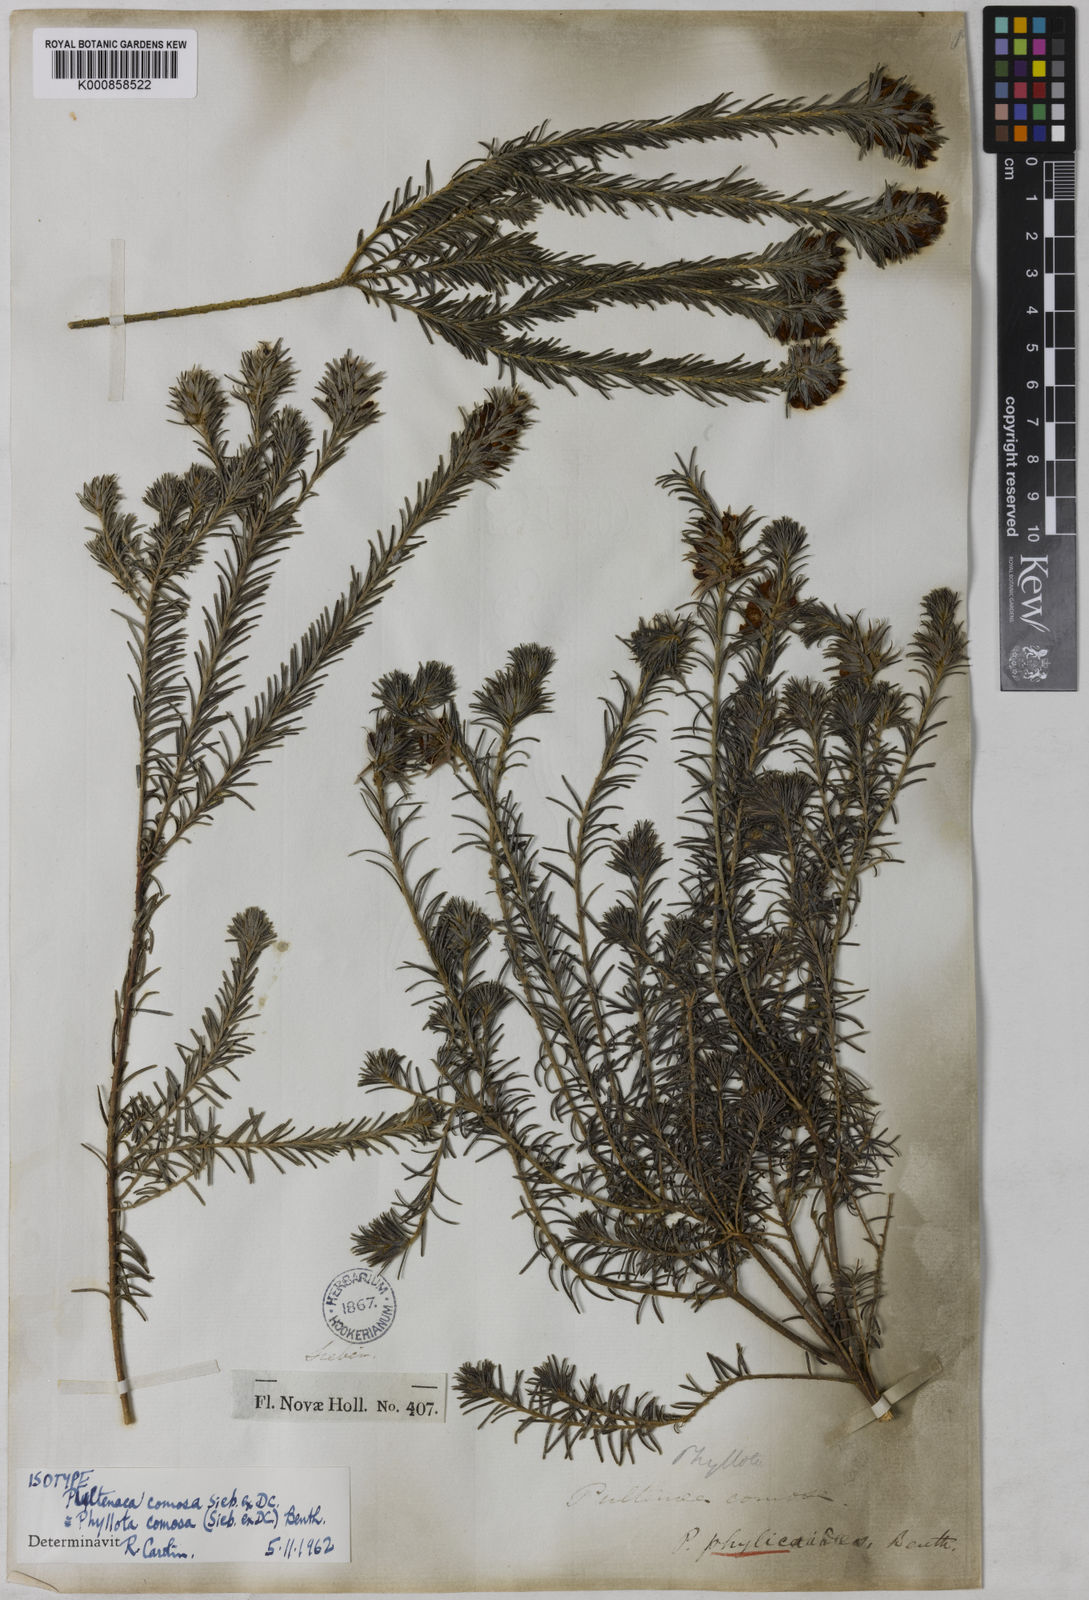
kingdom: Plantae
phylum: Tracheophyta
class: Magnoliopsida
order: Fabales
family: Fabaceae
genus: Phyllota
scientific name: Phyllota phylicoides
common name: Heath phyllota
